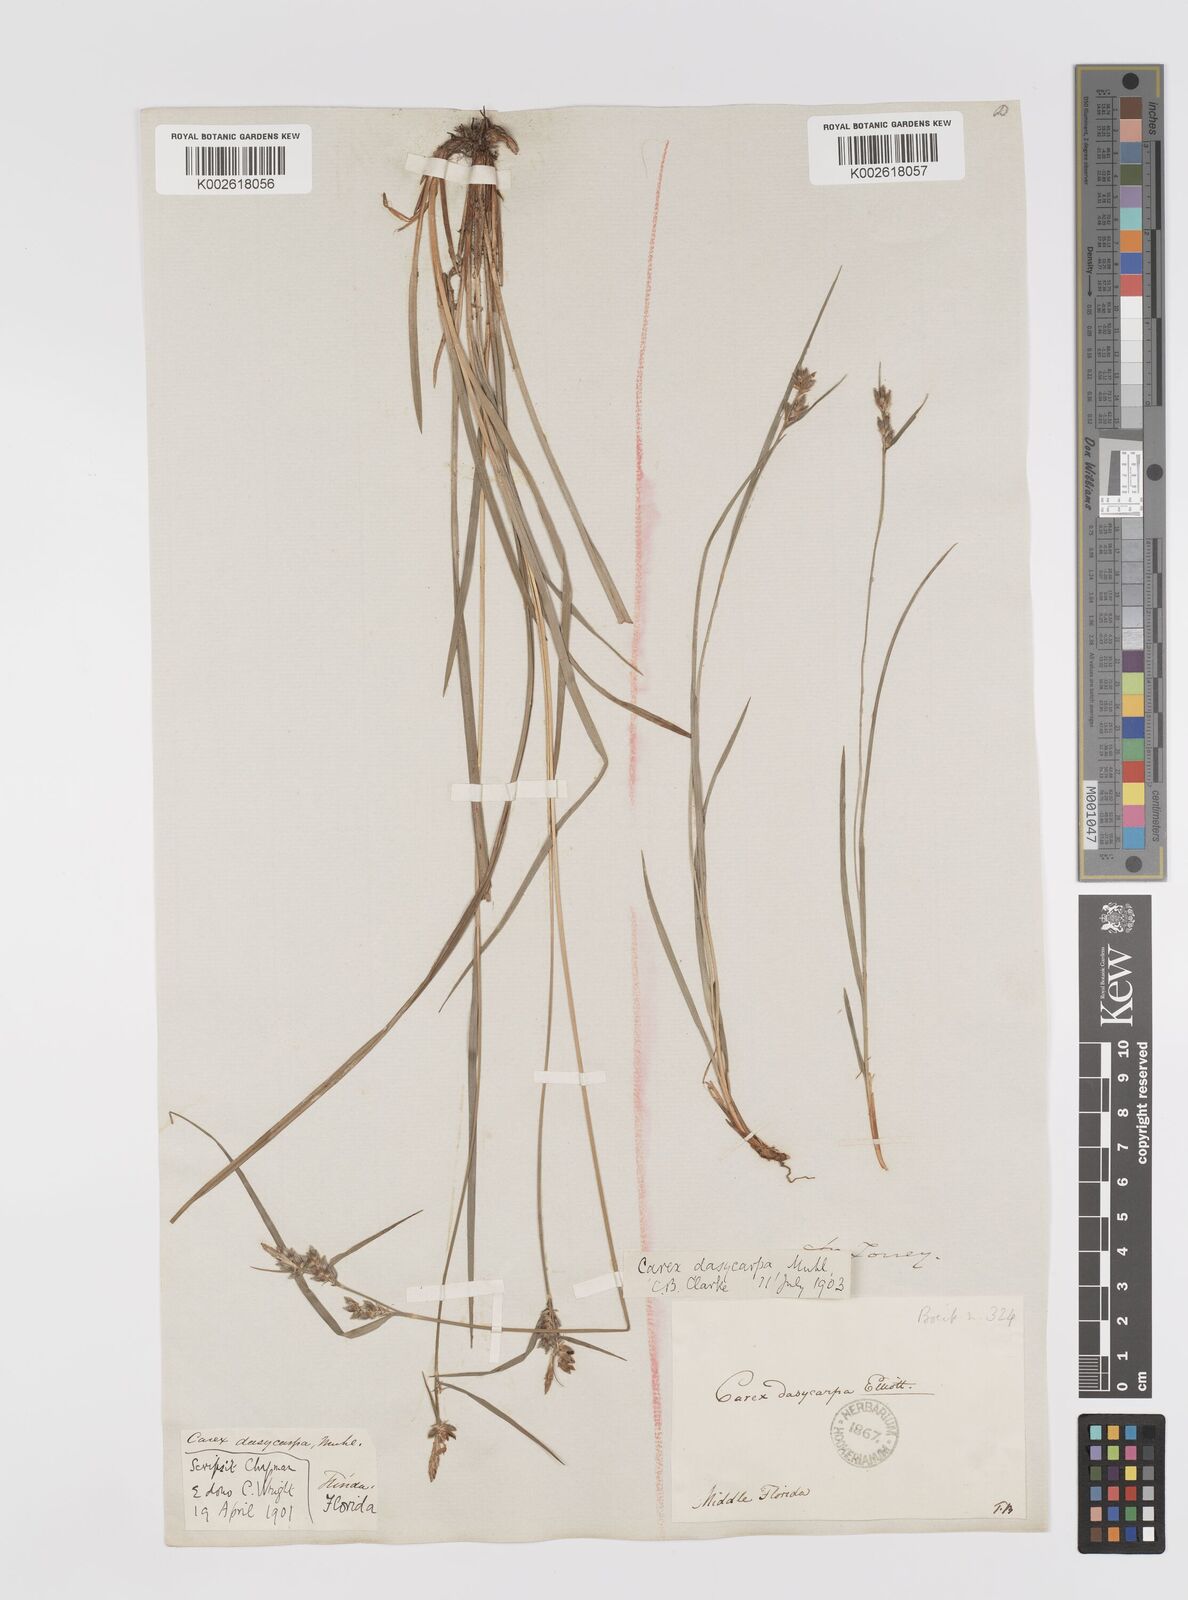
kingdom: Plantae
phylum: Tracheophyta
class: Liliopsida
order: Poales
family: Cyperaceae
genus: Carex
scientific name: Carex dasycarpa
